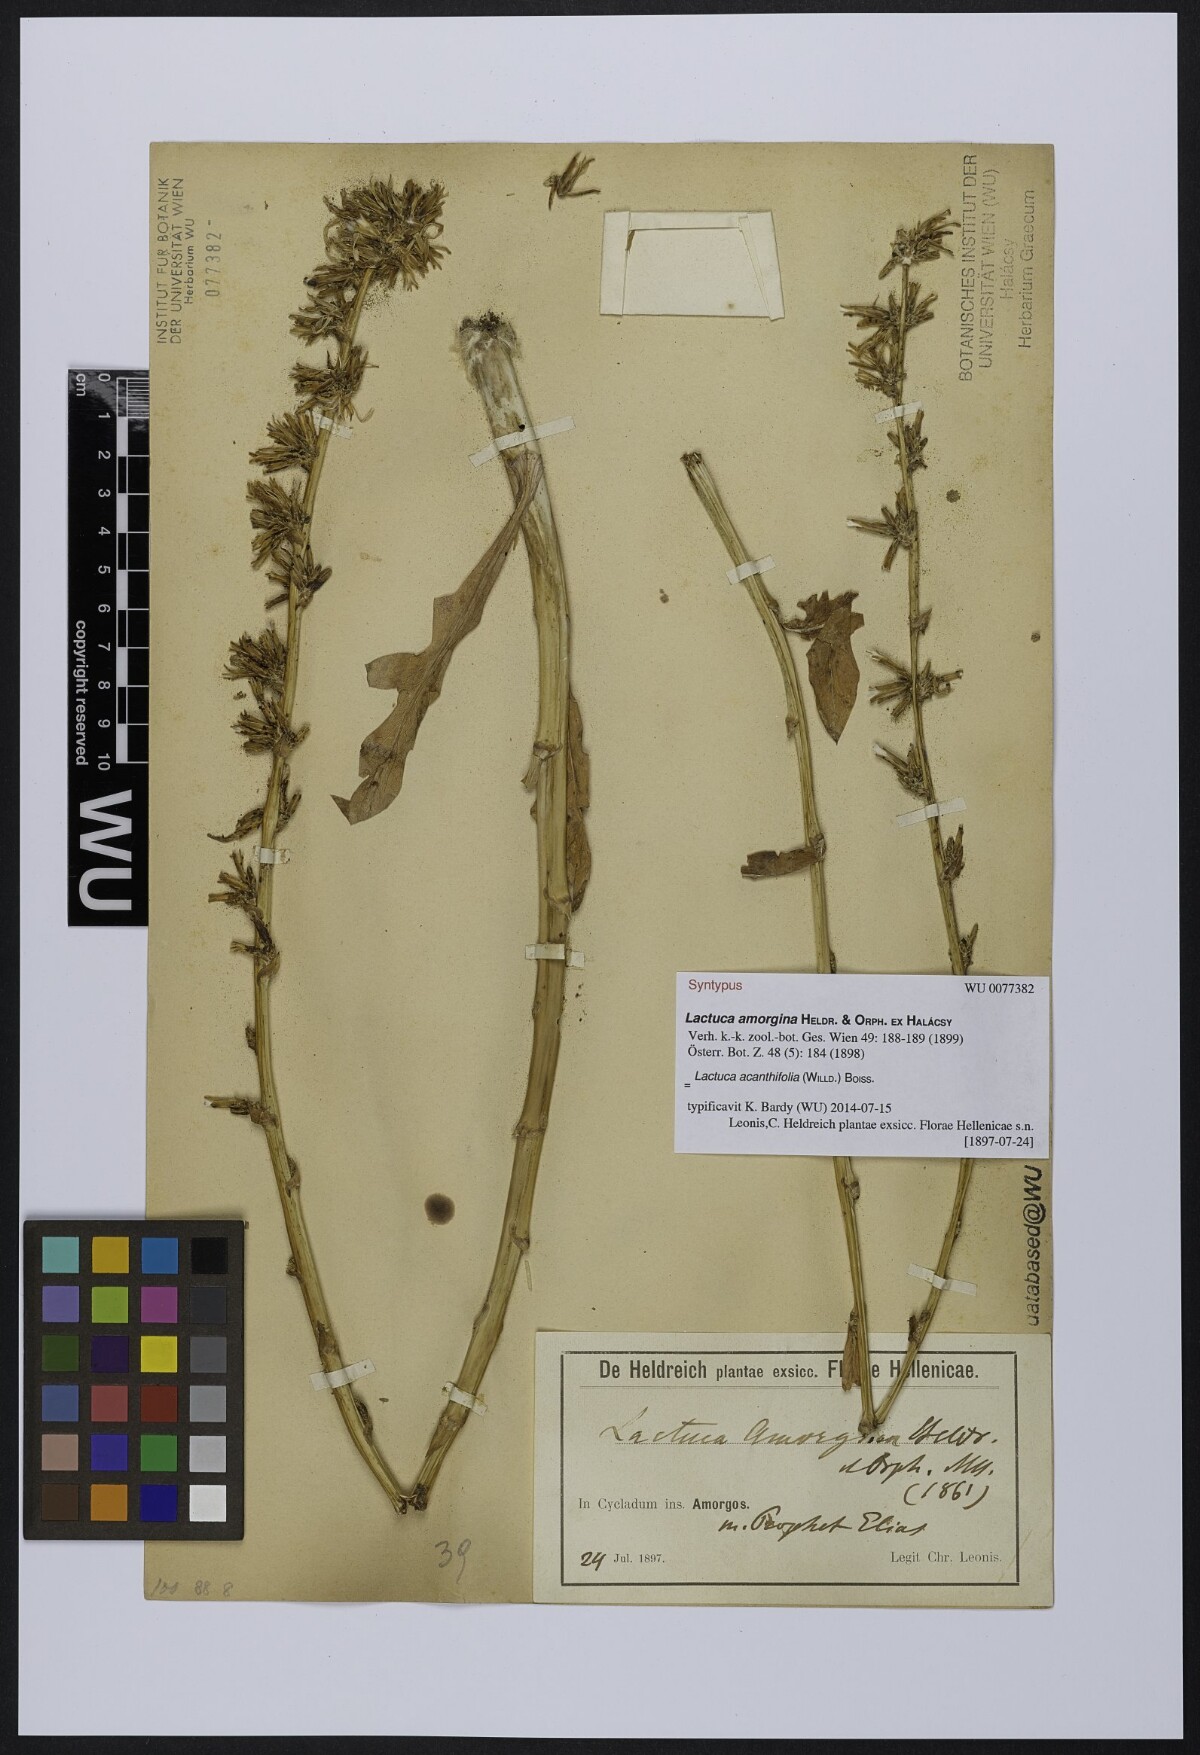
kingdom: Plantae
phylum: Tracheophyta
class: Magnoliopsida
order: Asterales
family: Asteraceae
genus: Lactuca
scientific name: Lactuca acanthifolia
